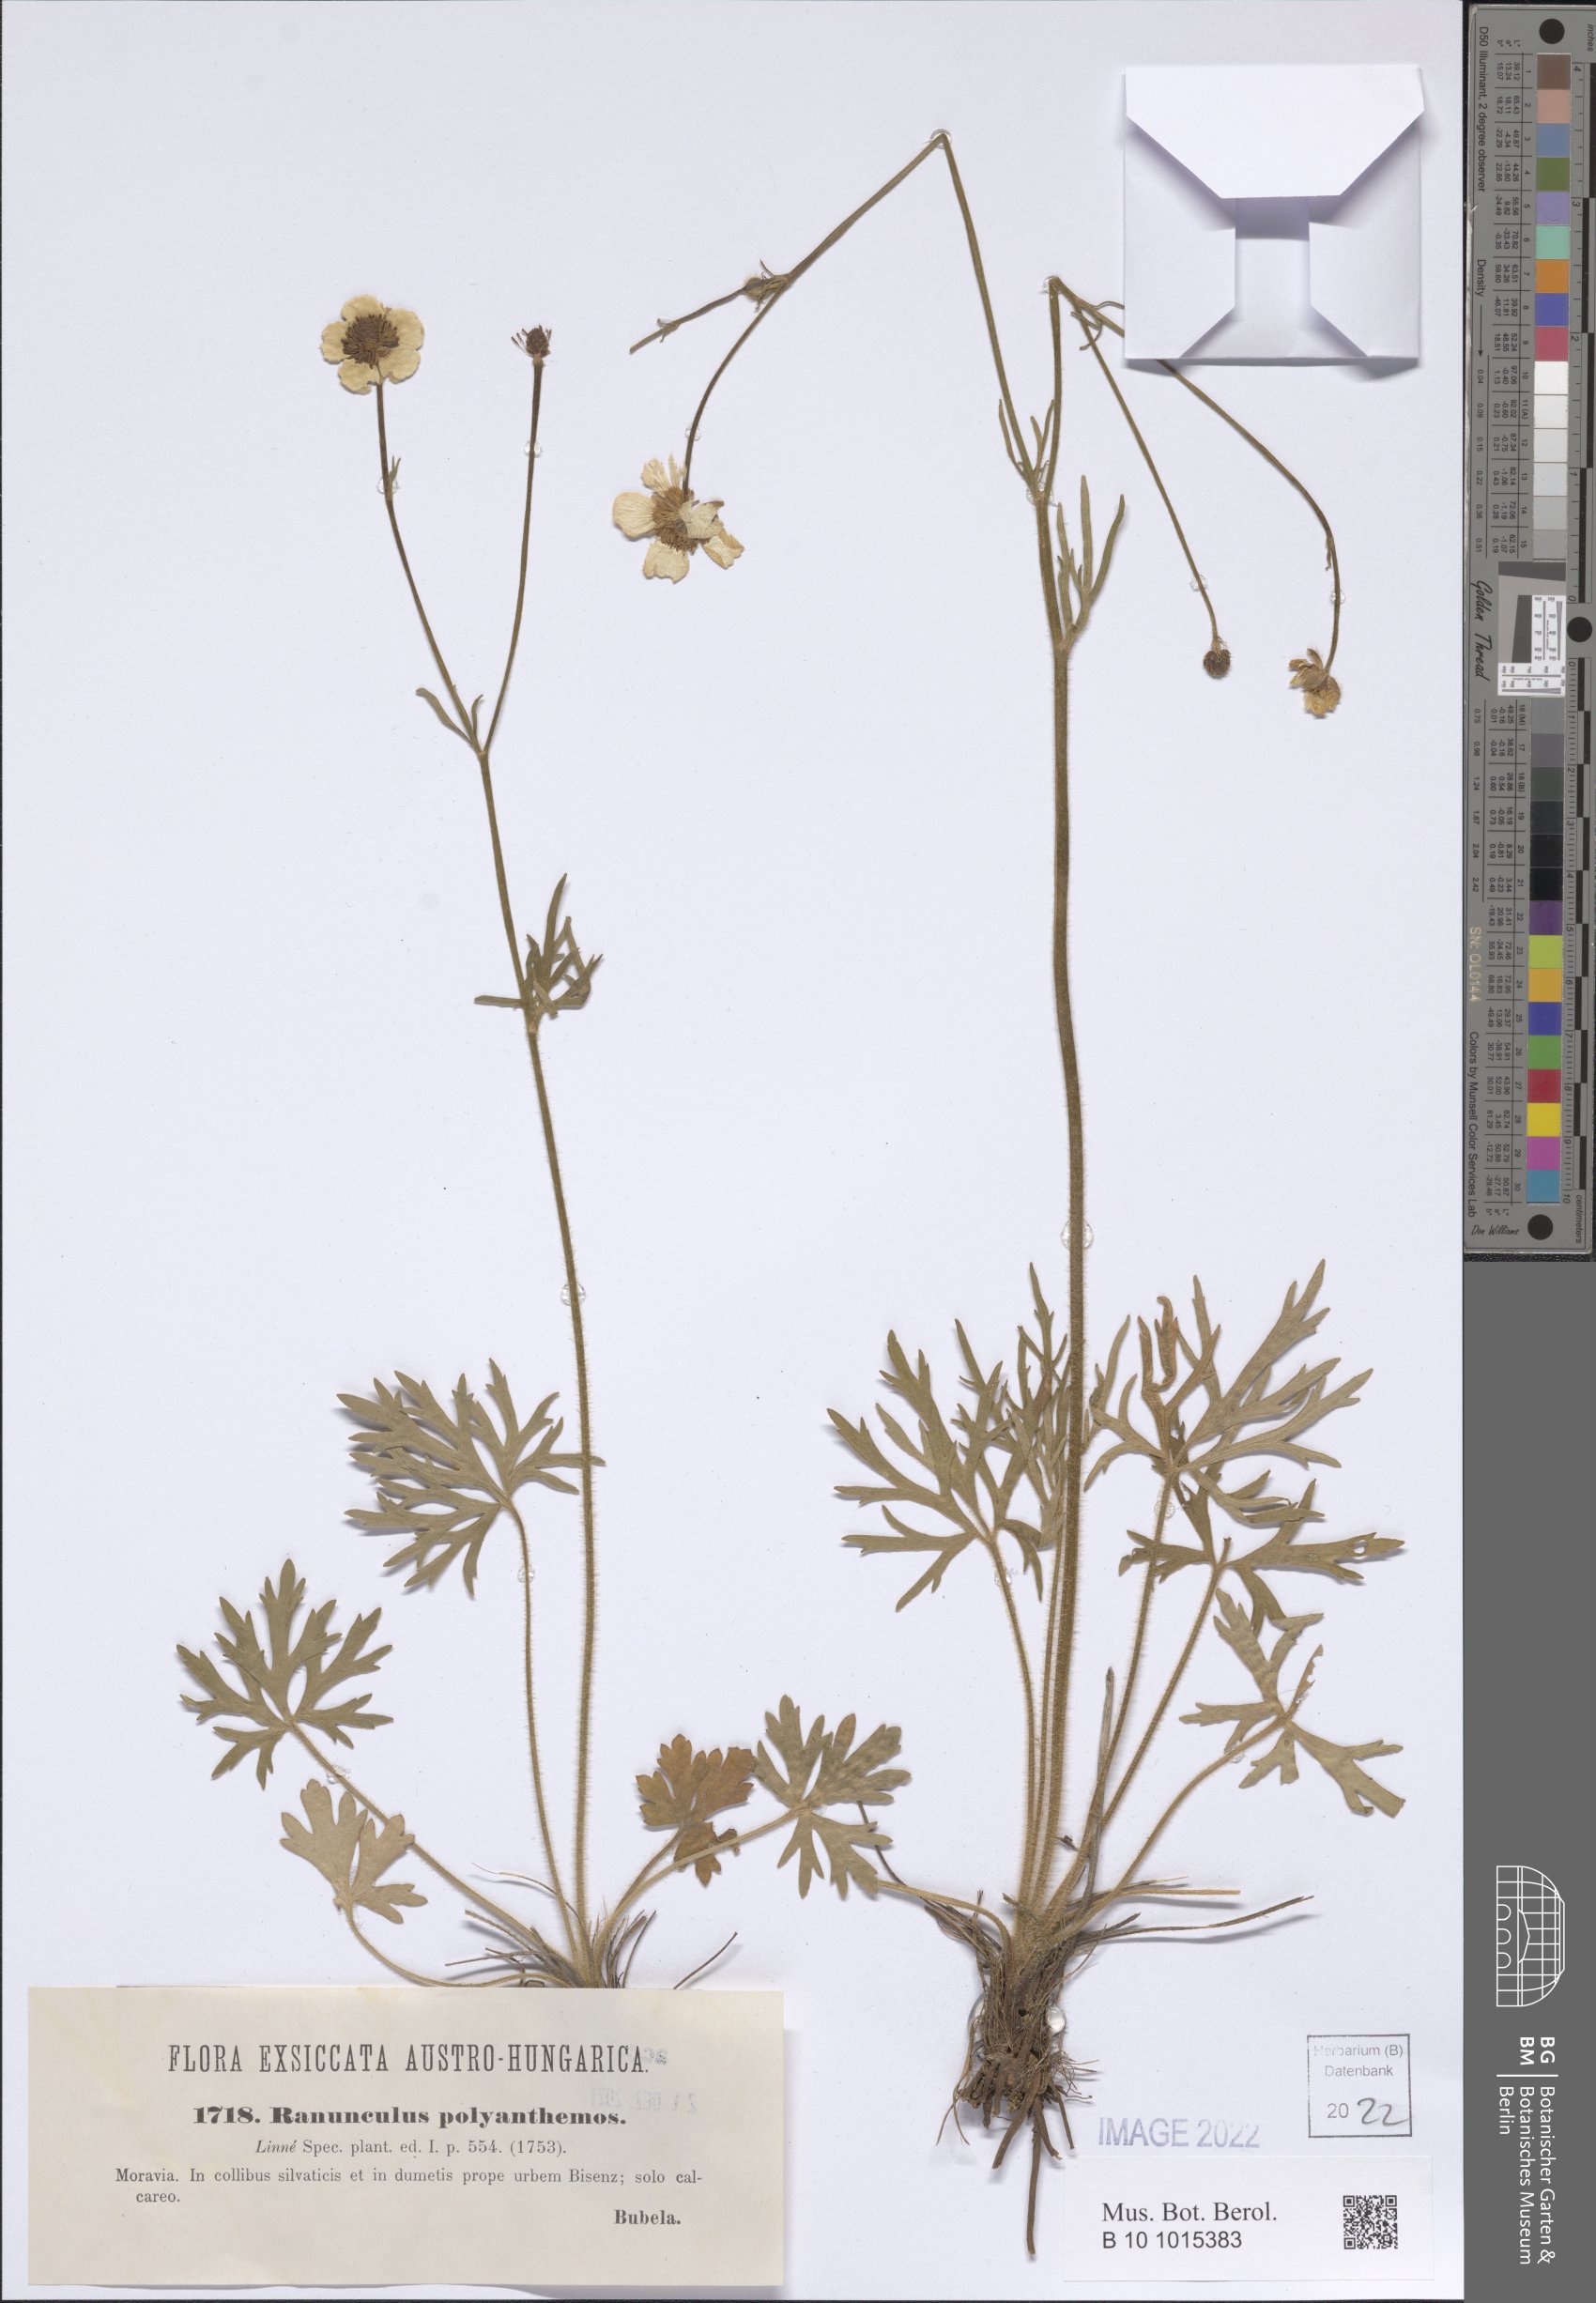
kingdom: Plantae
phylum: Tracheophyta
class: Magnoliopsida
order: Ranunculales
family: Ranunculaceae
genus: Ranunculus
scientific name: Ranunculus polyanthemos
